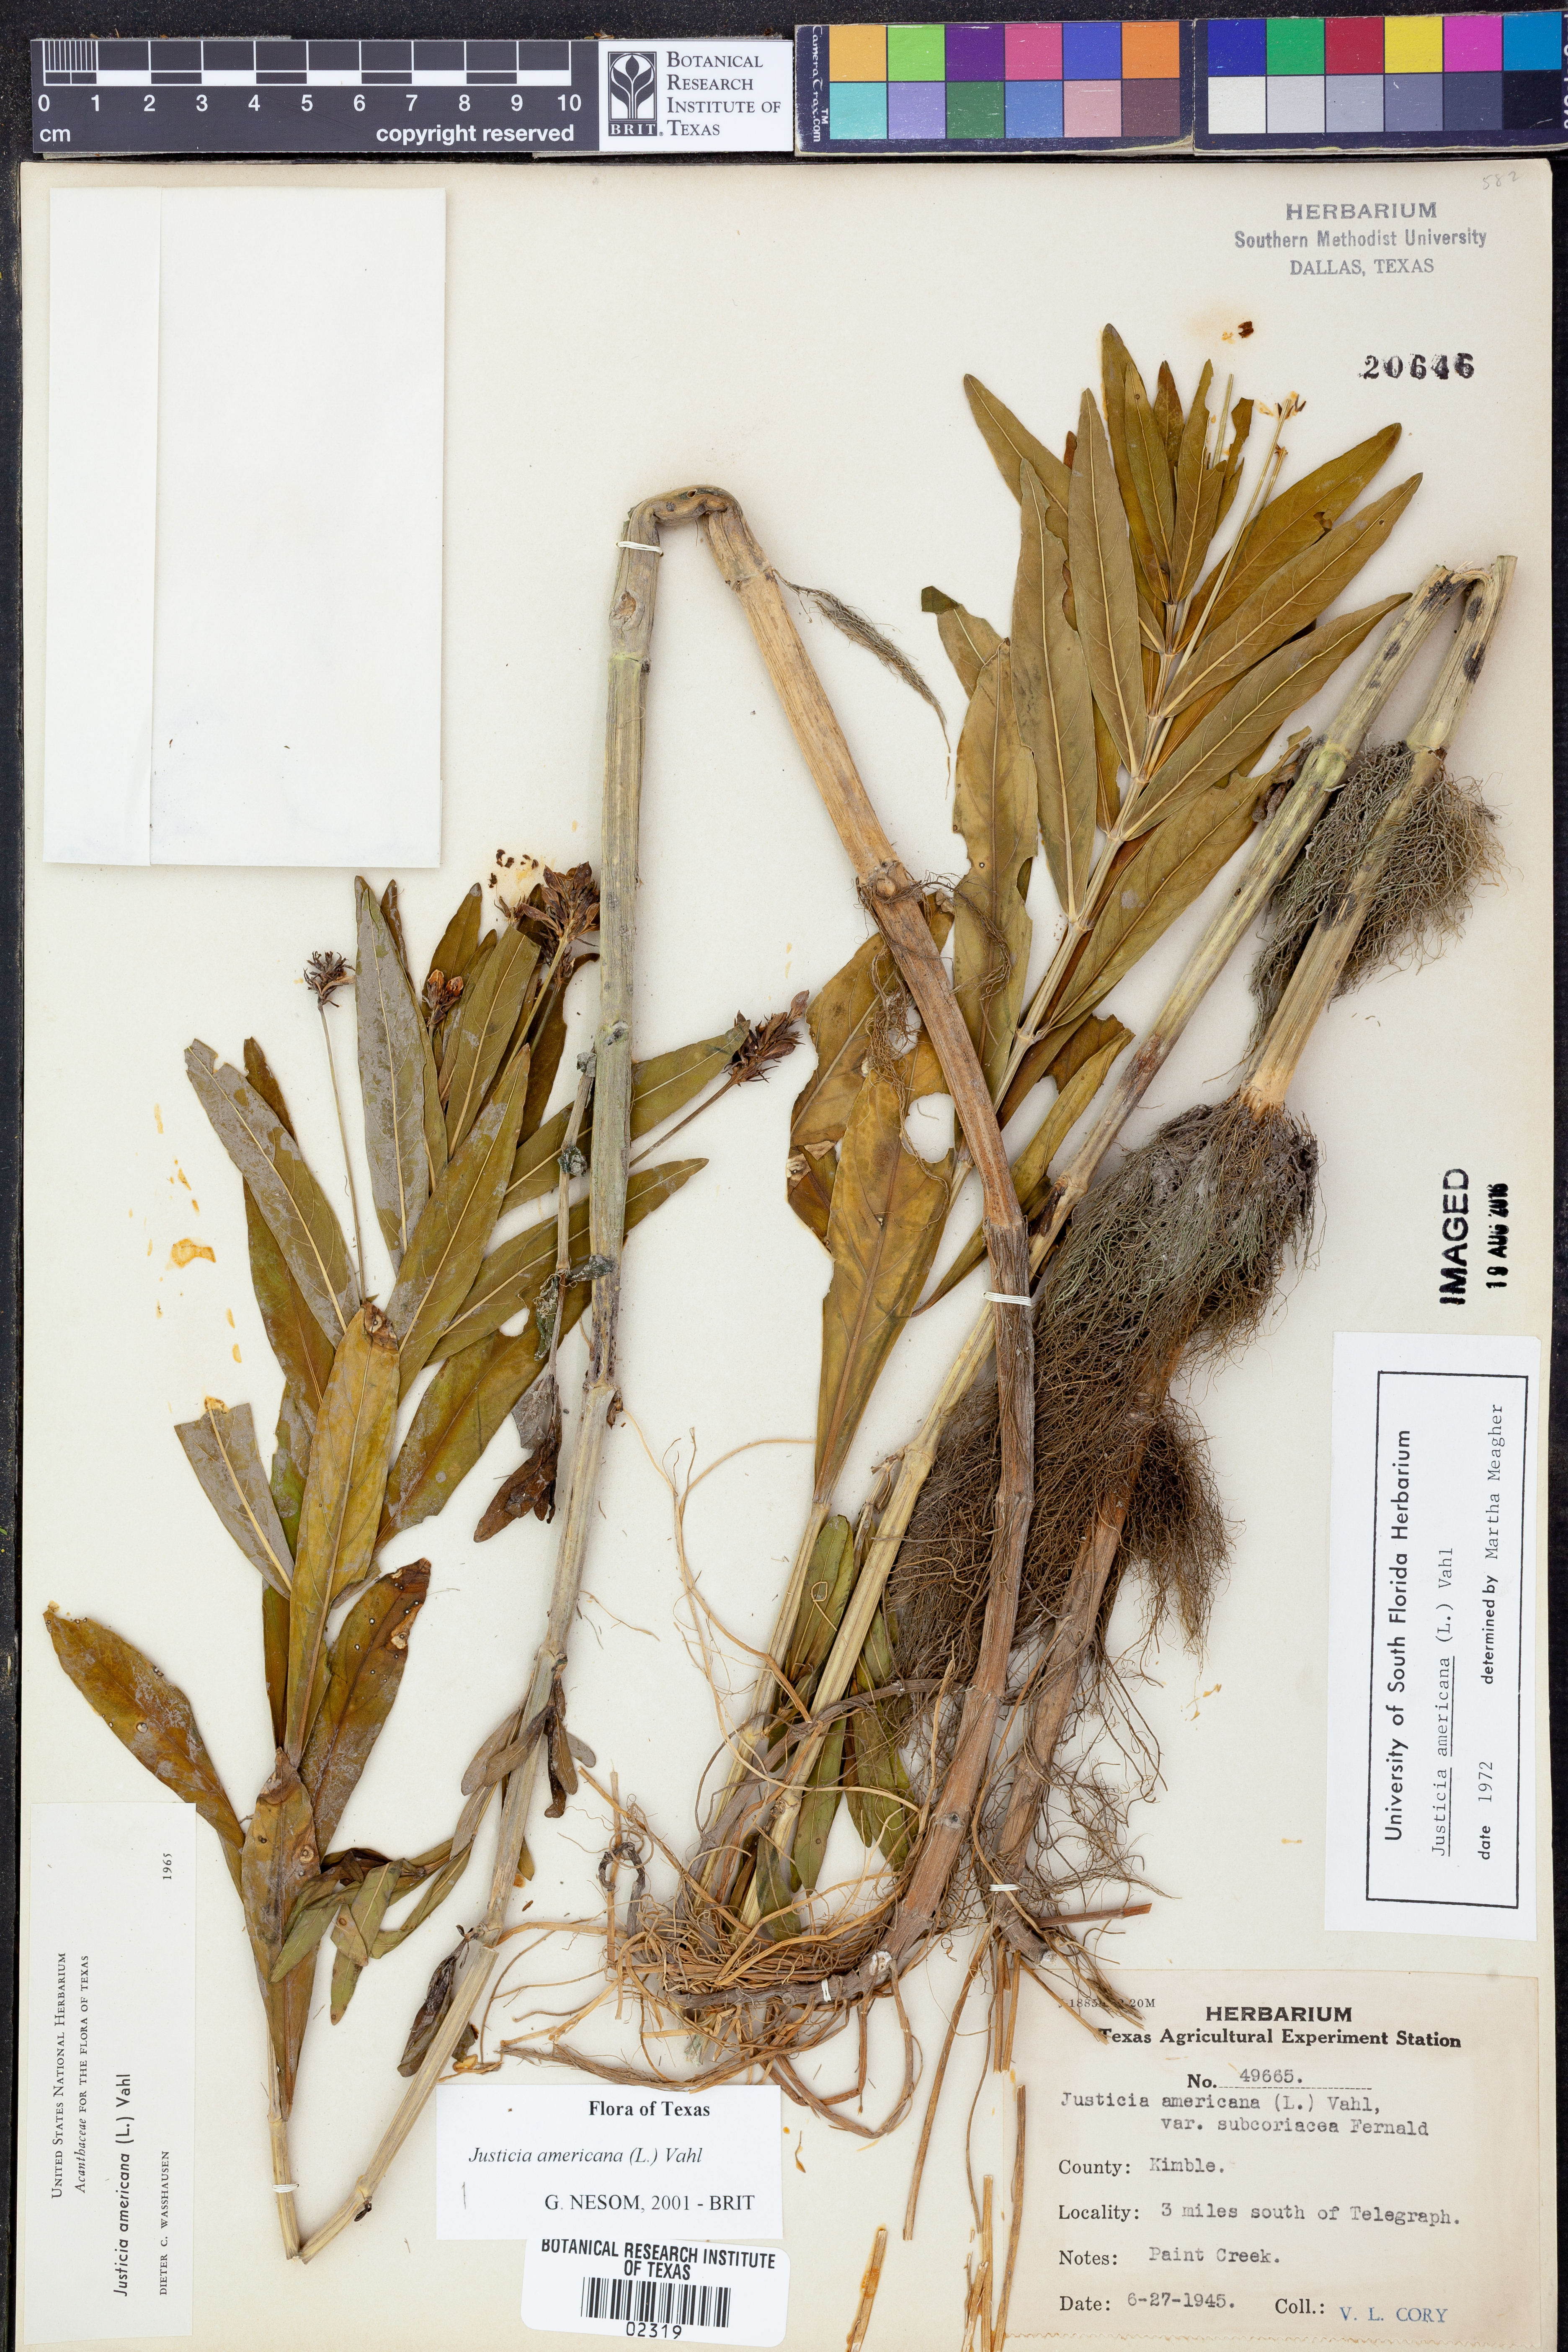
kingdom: Plantae
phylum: Tracheophyta
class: Magnoliopsida
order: Lamiales
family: Acanthaceae
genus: Dianthera
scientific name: Dianthera americana
